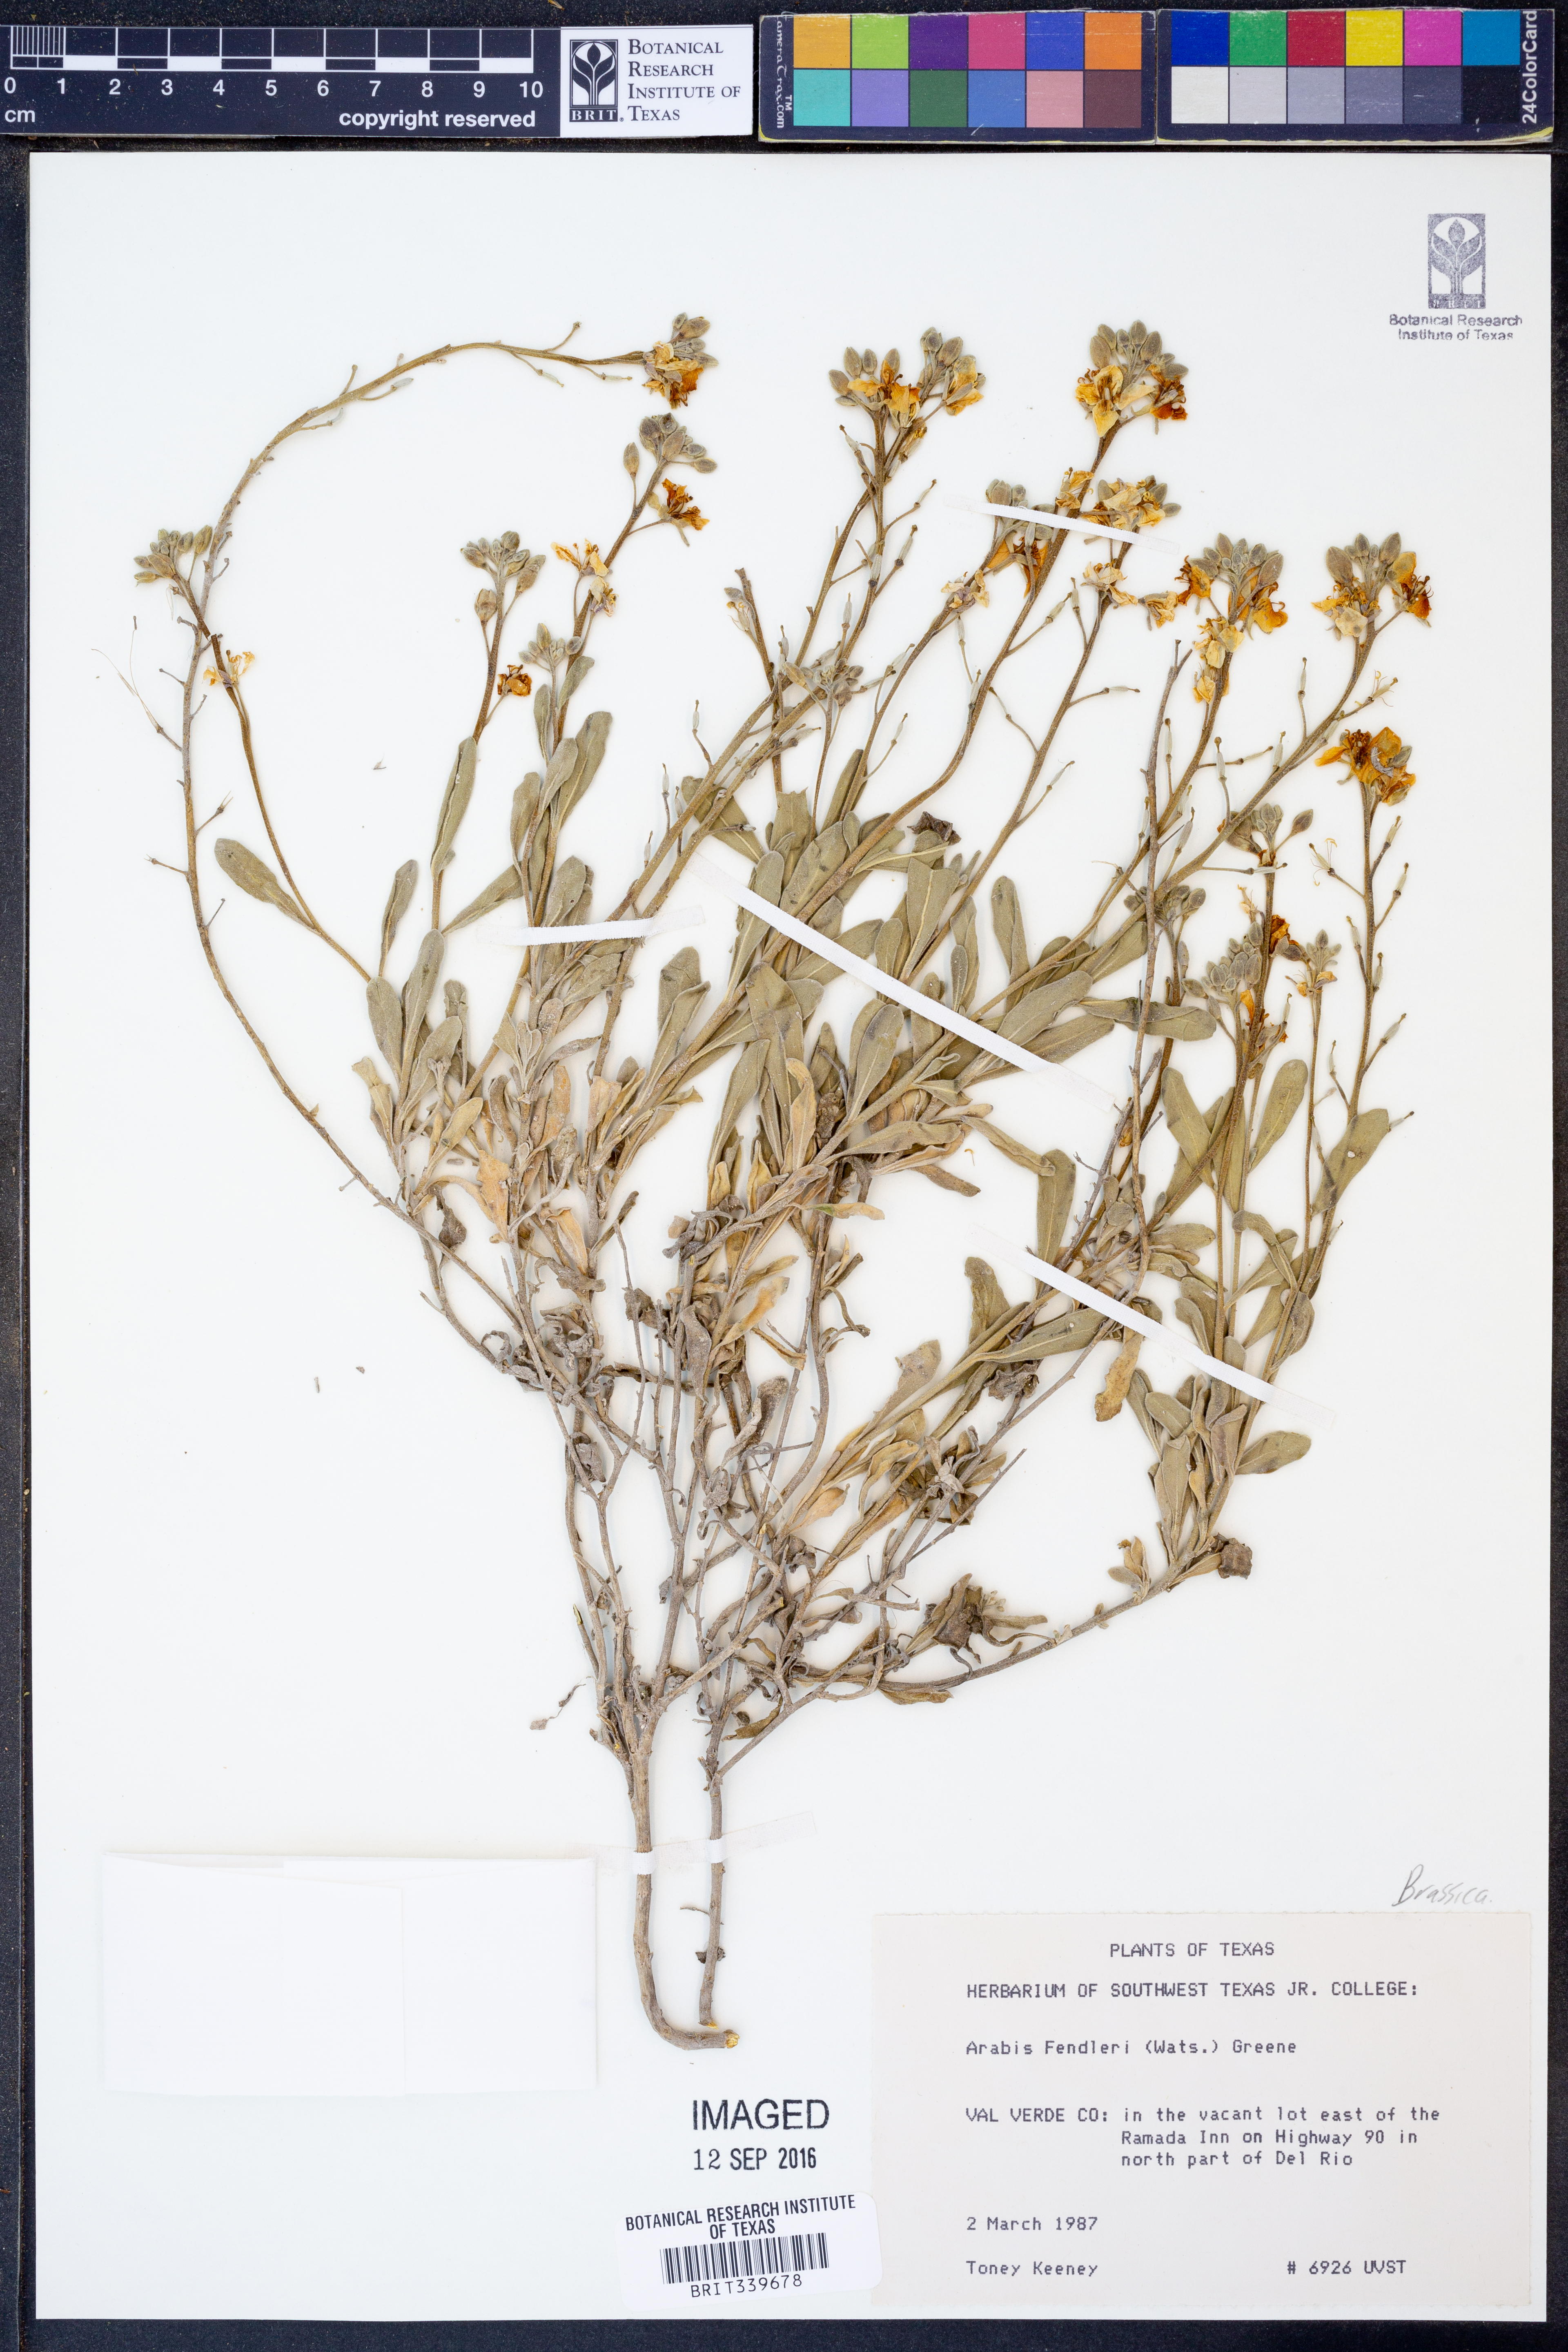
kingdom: Plantae
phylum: Tracheophyta
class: Magnoliopsida
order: Brassicales
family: Brassicaceae
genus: Boechera
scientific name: Boechera fendleri
